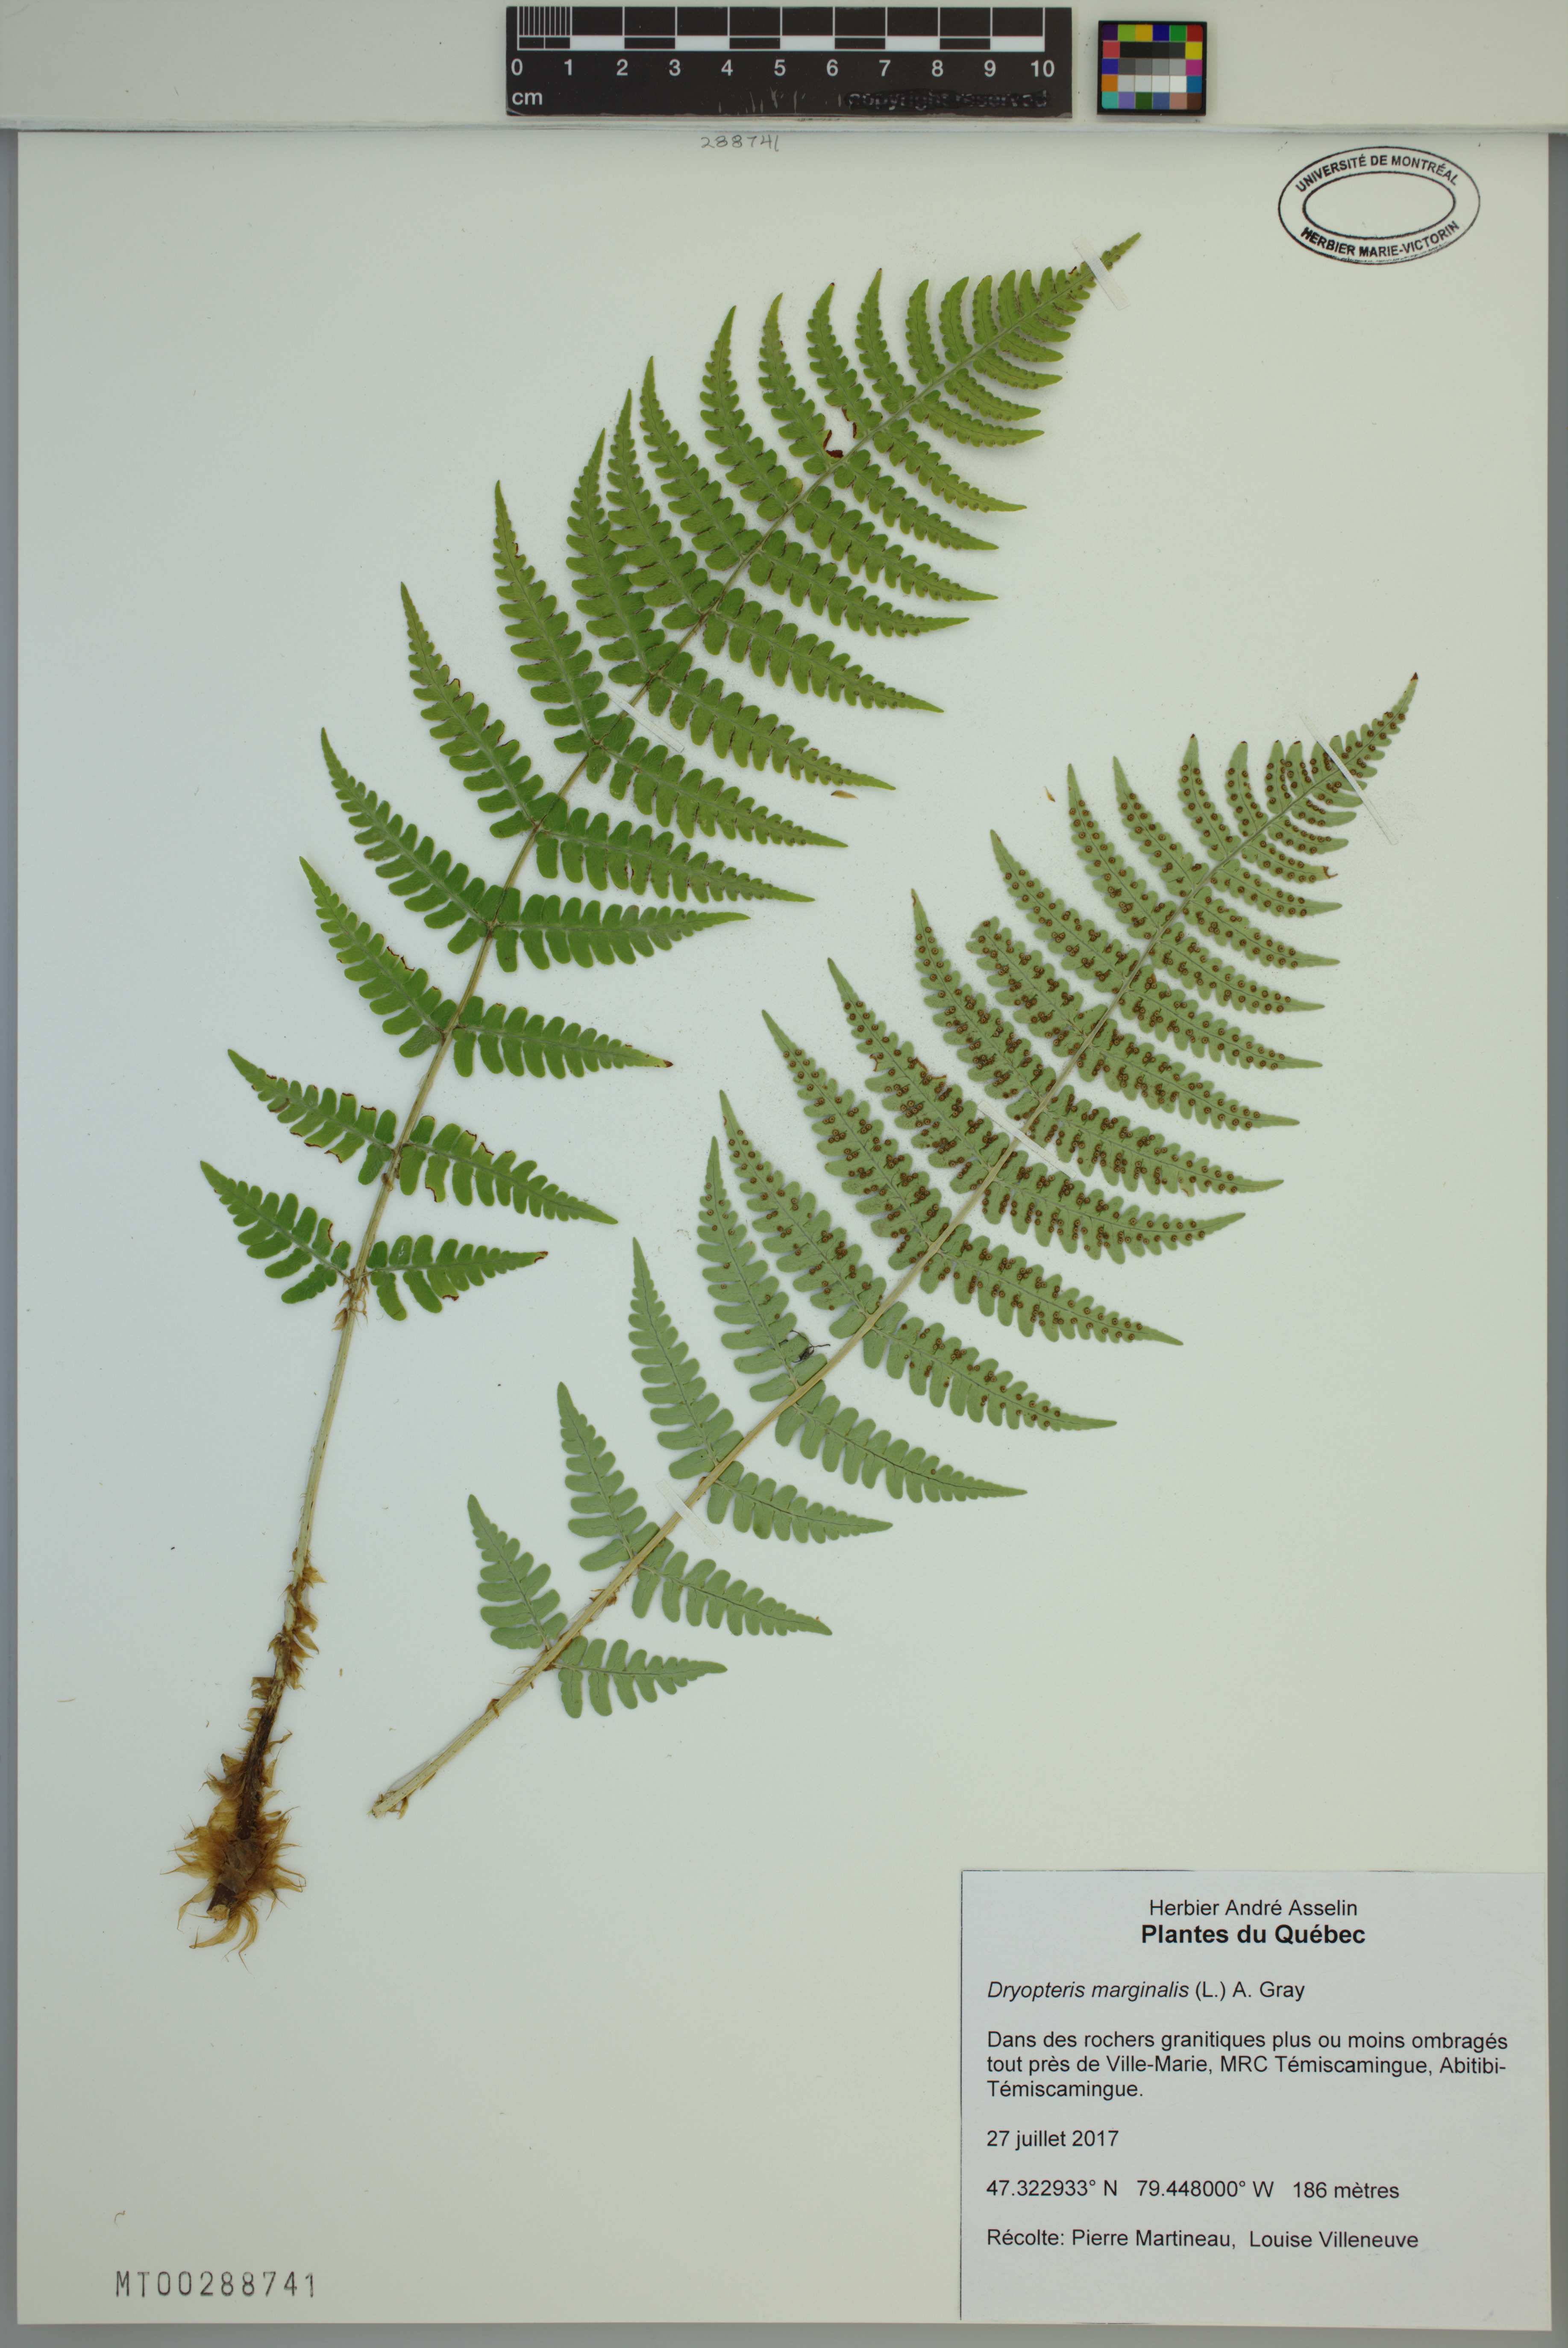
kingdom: Plantae
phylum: Tracheophyta
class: Polypodiopsida
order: Polypodiales
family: Dryopteridaceae
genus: Dryopteris
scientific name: Dryopteris marginalis
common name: Marginal wood fern
